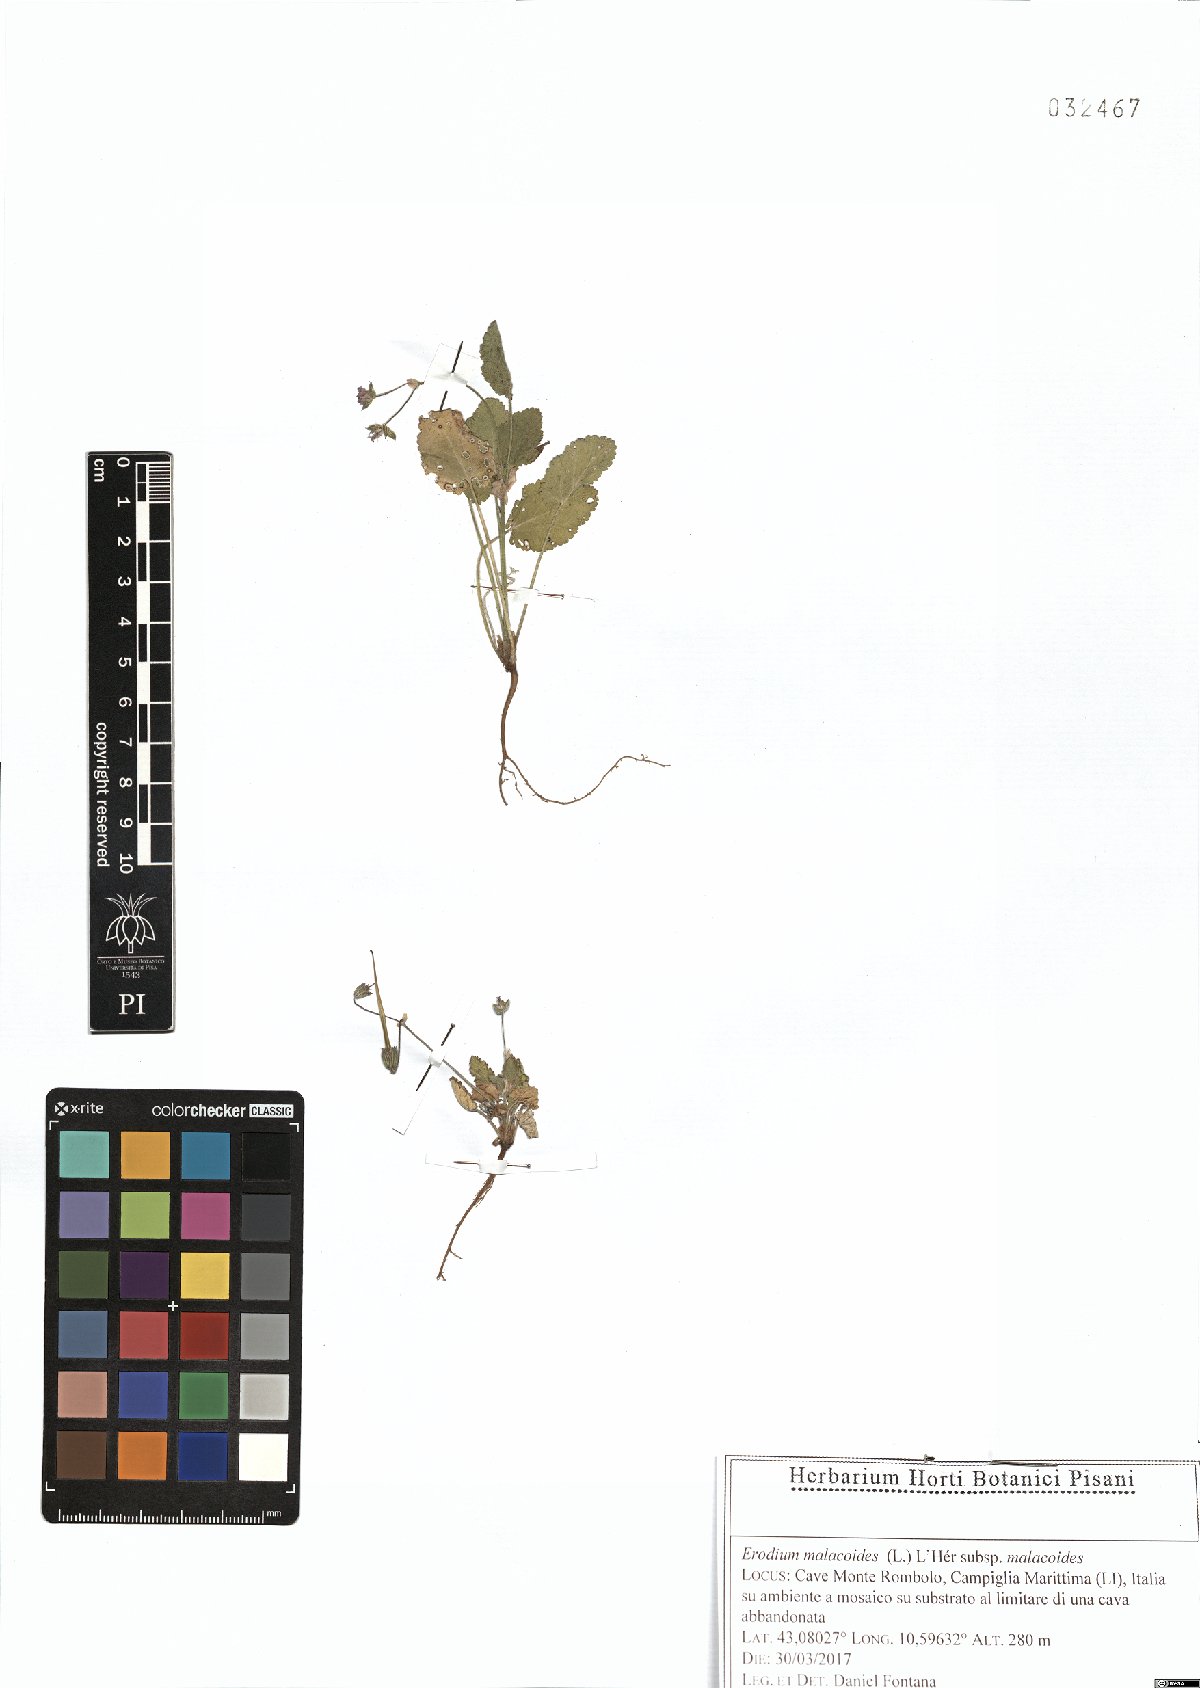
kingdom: Plantae
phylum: Tracheophyta
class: Magnoliopsida
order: Geraniales
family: Geraniaceae
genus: Erodium
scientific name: Erodium malacoides
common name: Soft stork's-bill
